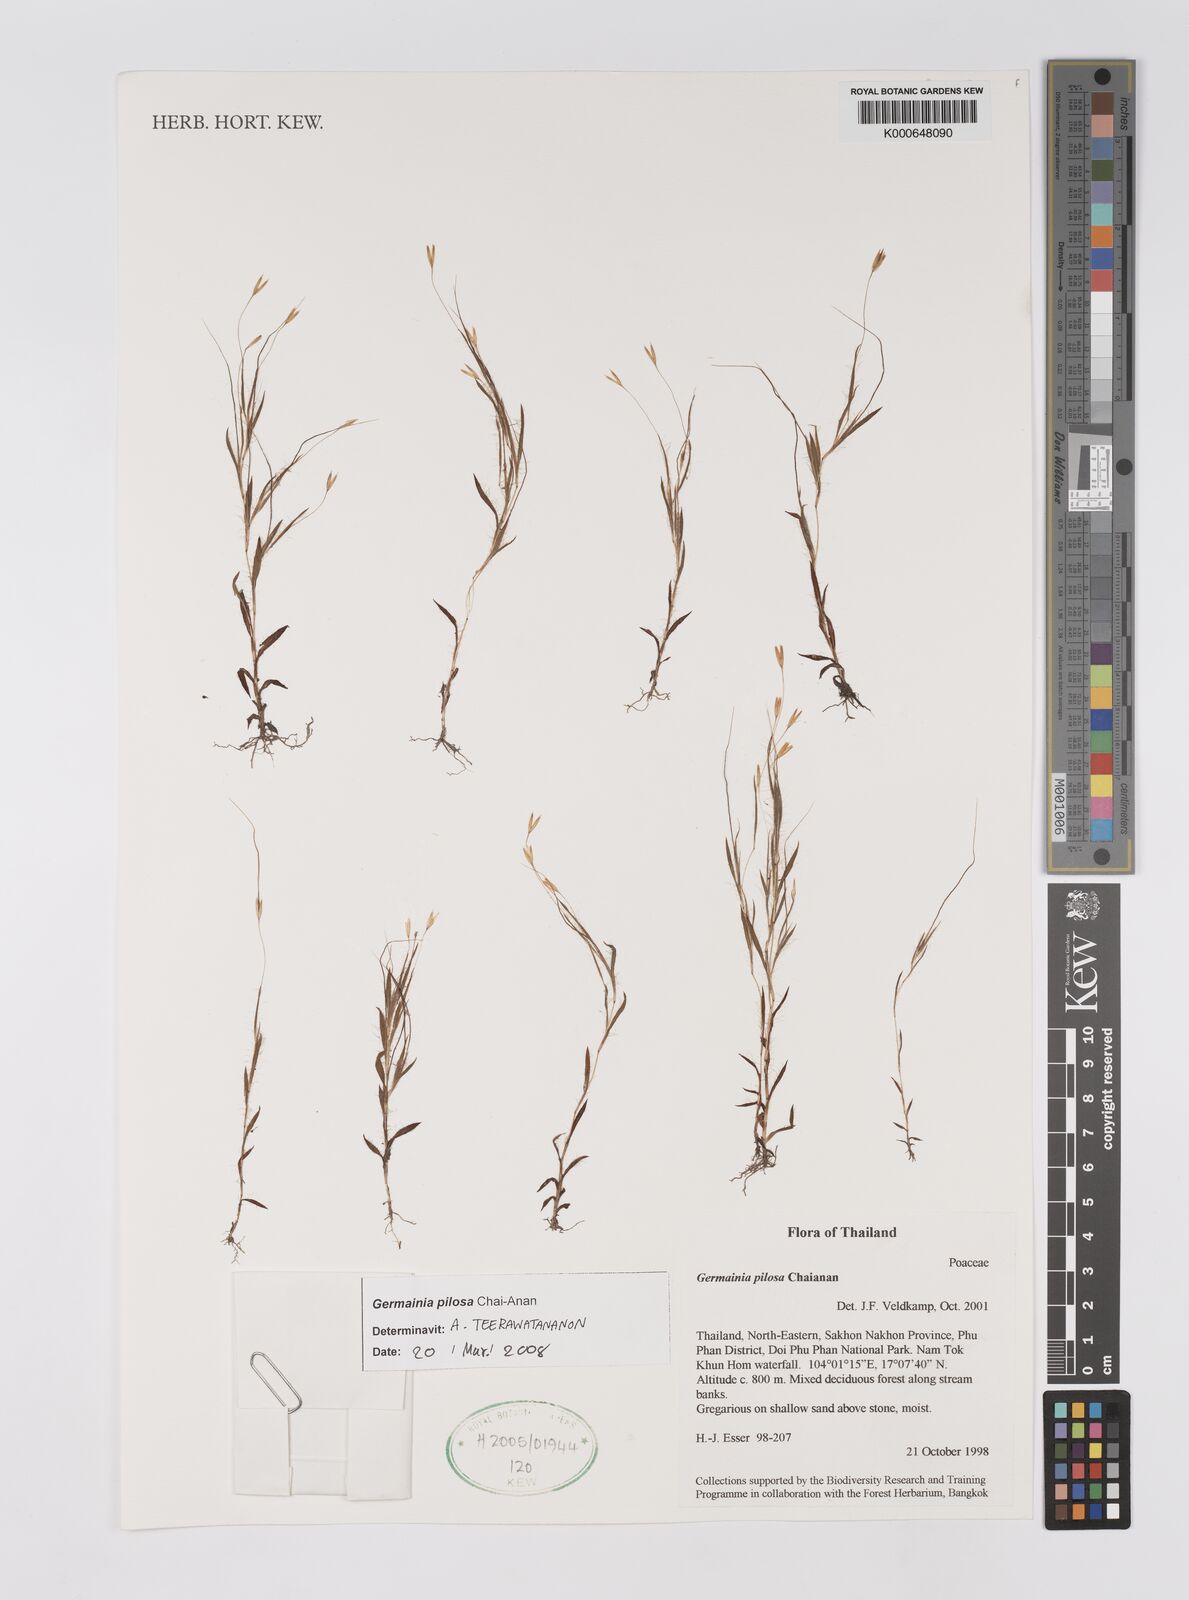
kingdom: Plantae
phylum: Tracheophyta
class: Liliopsida
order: Poales
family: Poaceae
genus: Germainia
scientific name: Germainia pilosa
